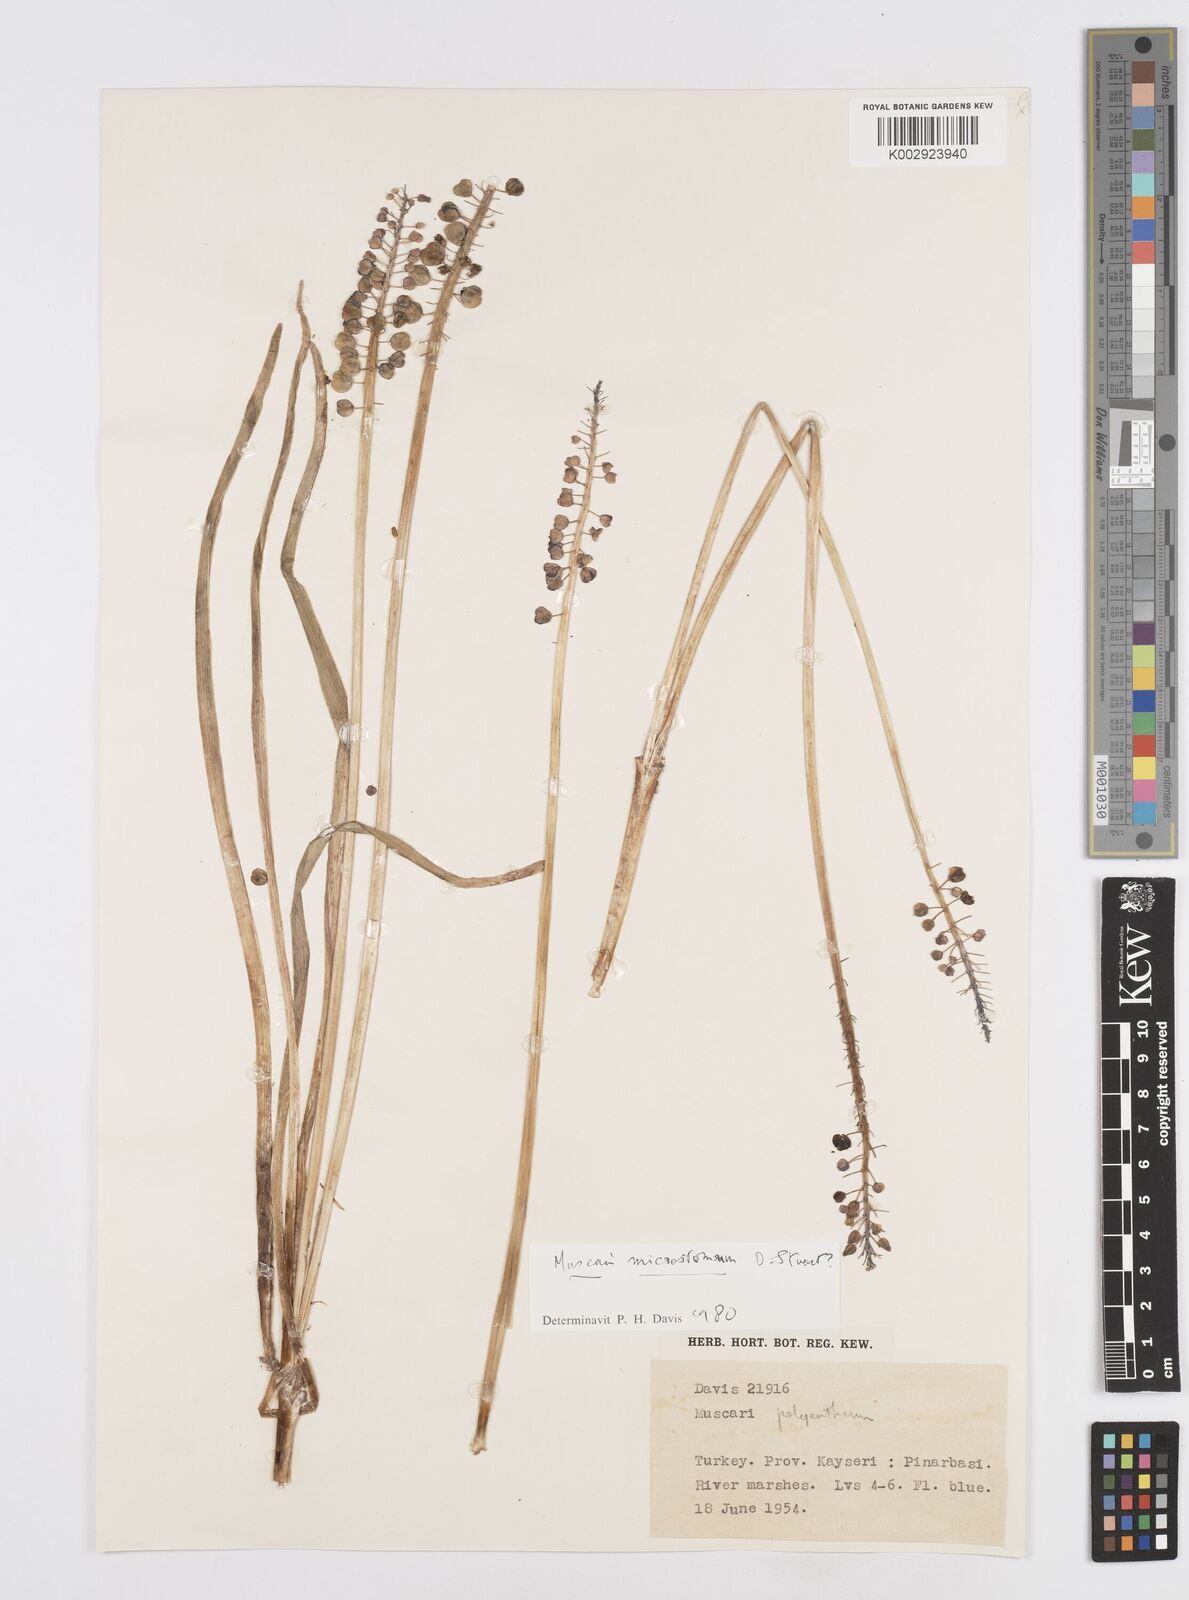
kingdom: Plantae
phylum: Tracheophyta
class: Liliopsida
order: Asparagales
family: Asparagaceae
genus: Muscari
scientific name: Muscari microstomum
